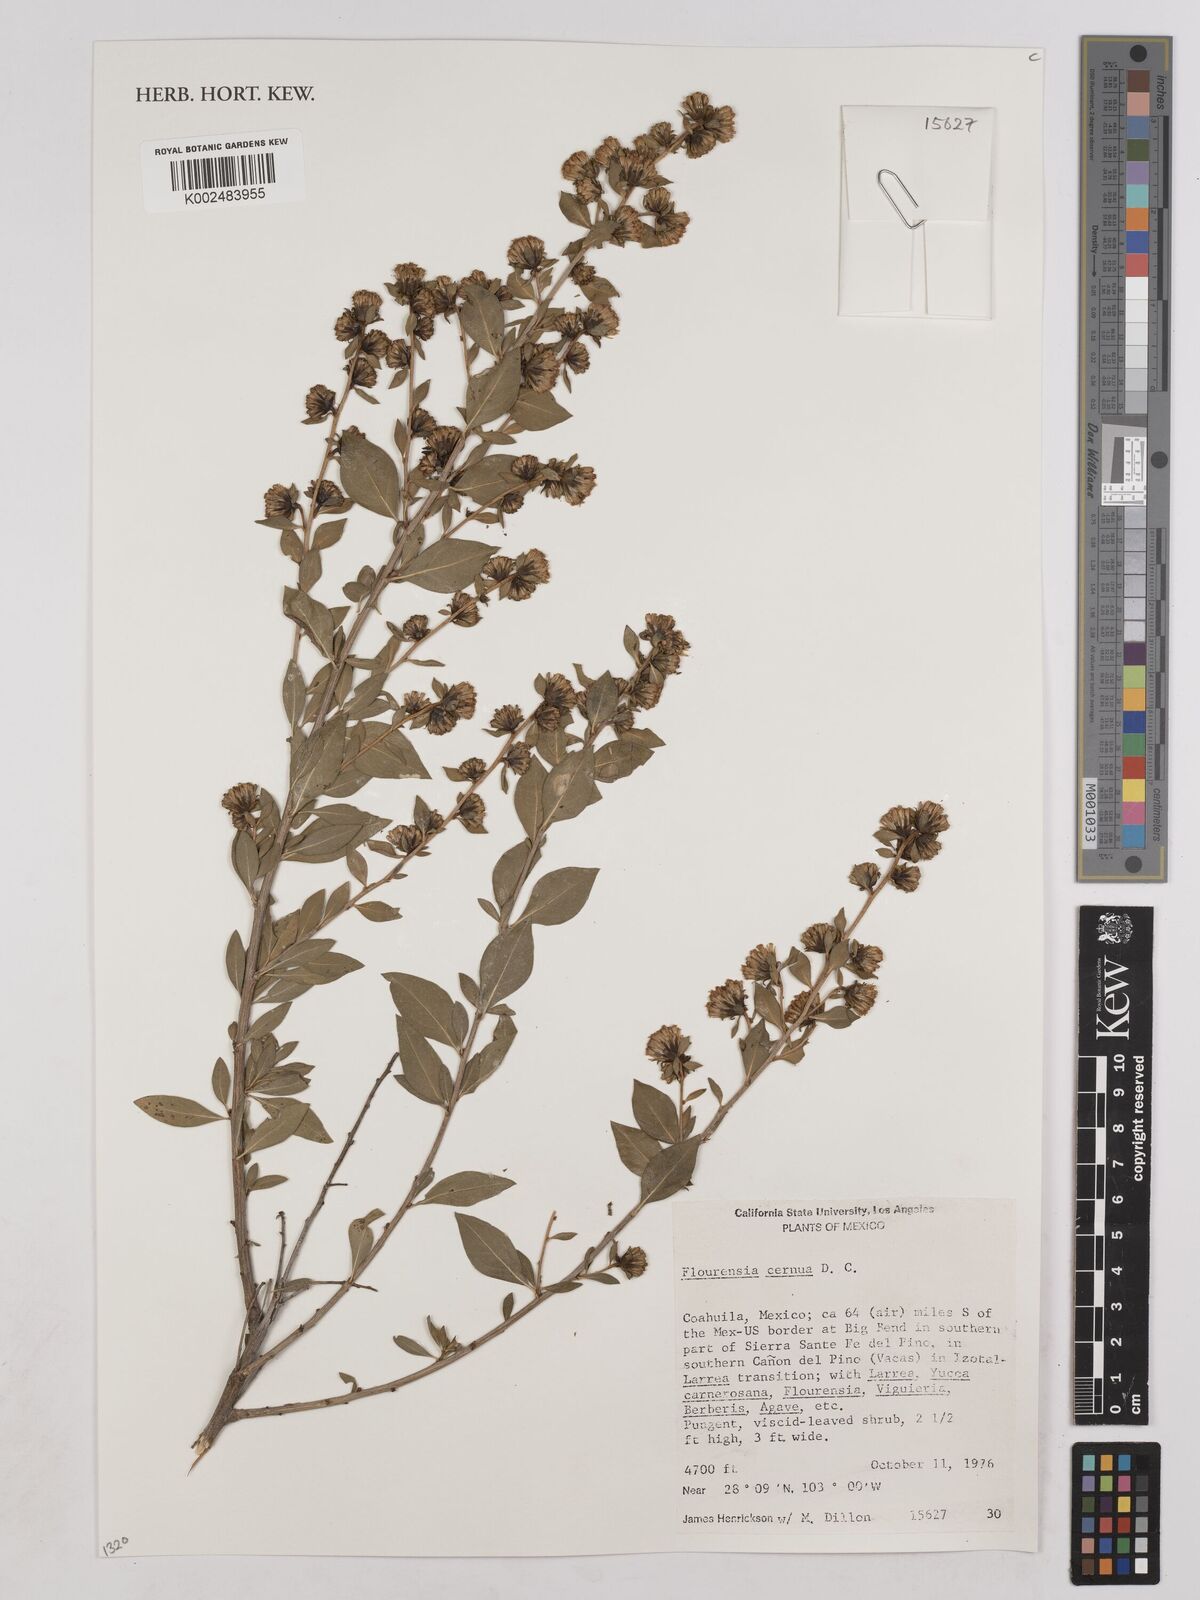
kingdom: Plantae
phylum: Tracheophyta
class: Magnoliopsida
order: Asterales
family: Asteraceae
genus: Flourensia
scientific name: Flourensia cernua
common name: Varnishbush
